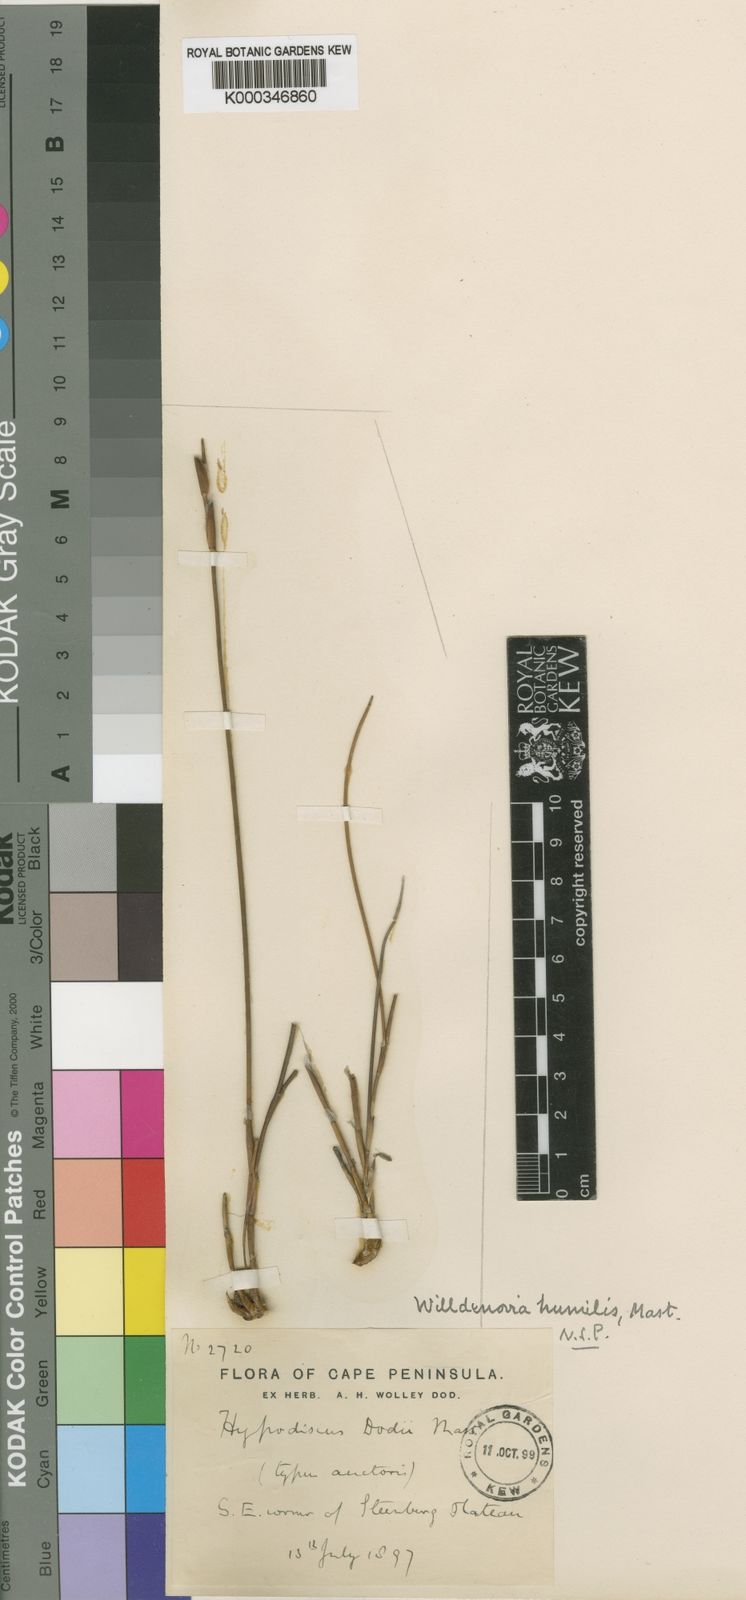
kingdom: Plantae
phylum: Tracheophyta
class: Liliopsida
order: Poales
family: Restionaceae
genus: Willdenowia
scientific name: Willdenowia humilis
